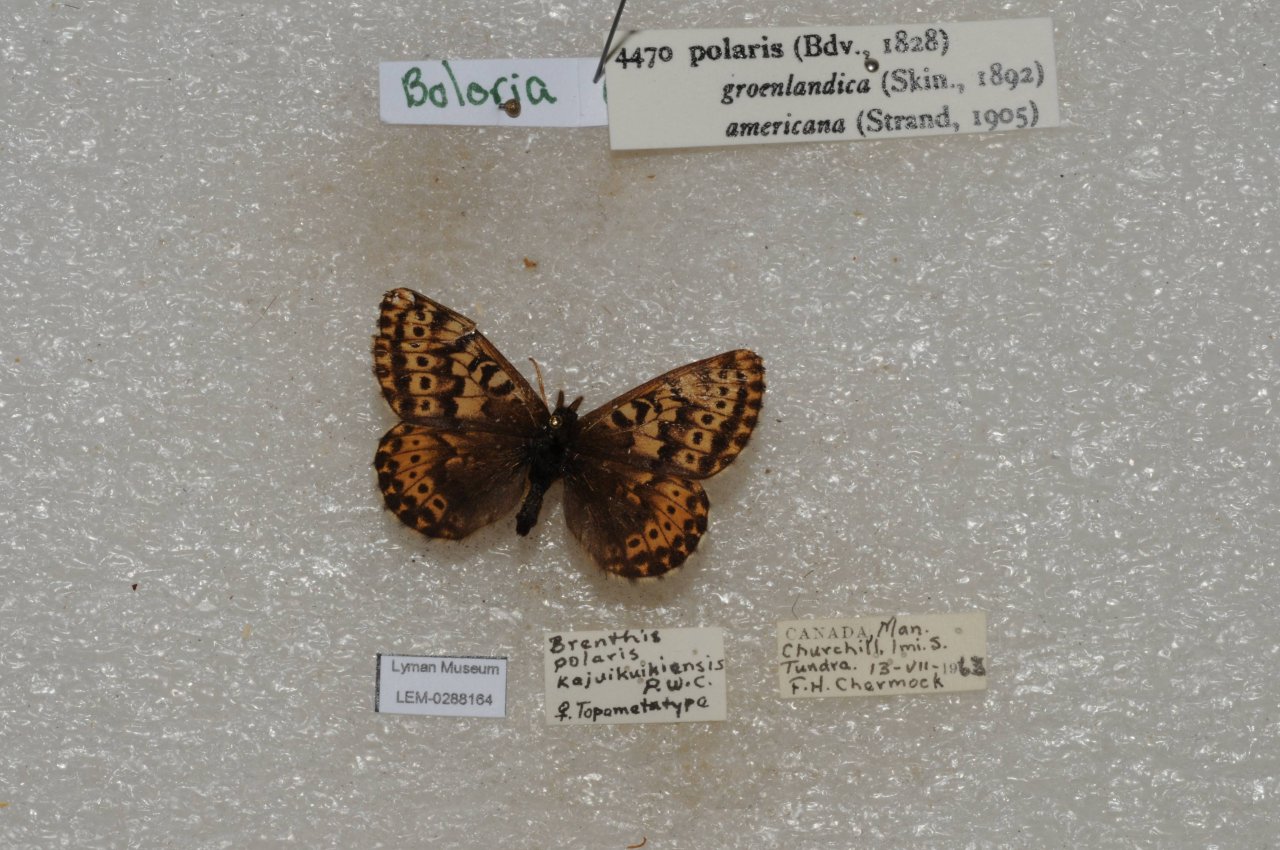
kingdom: Animalia
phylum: Arthropoda
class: Insecta
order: Lepidoptera
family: Nymphalidae
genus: Clossiana
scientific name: Clossiana polaris
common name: Polaris Fritillary
